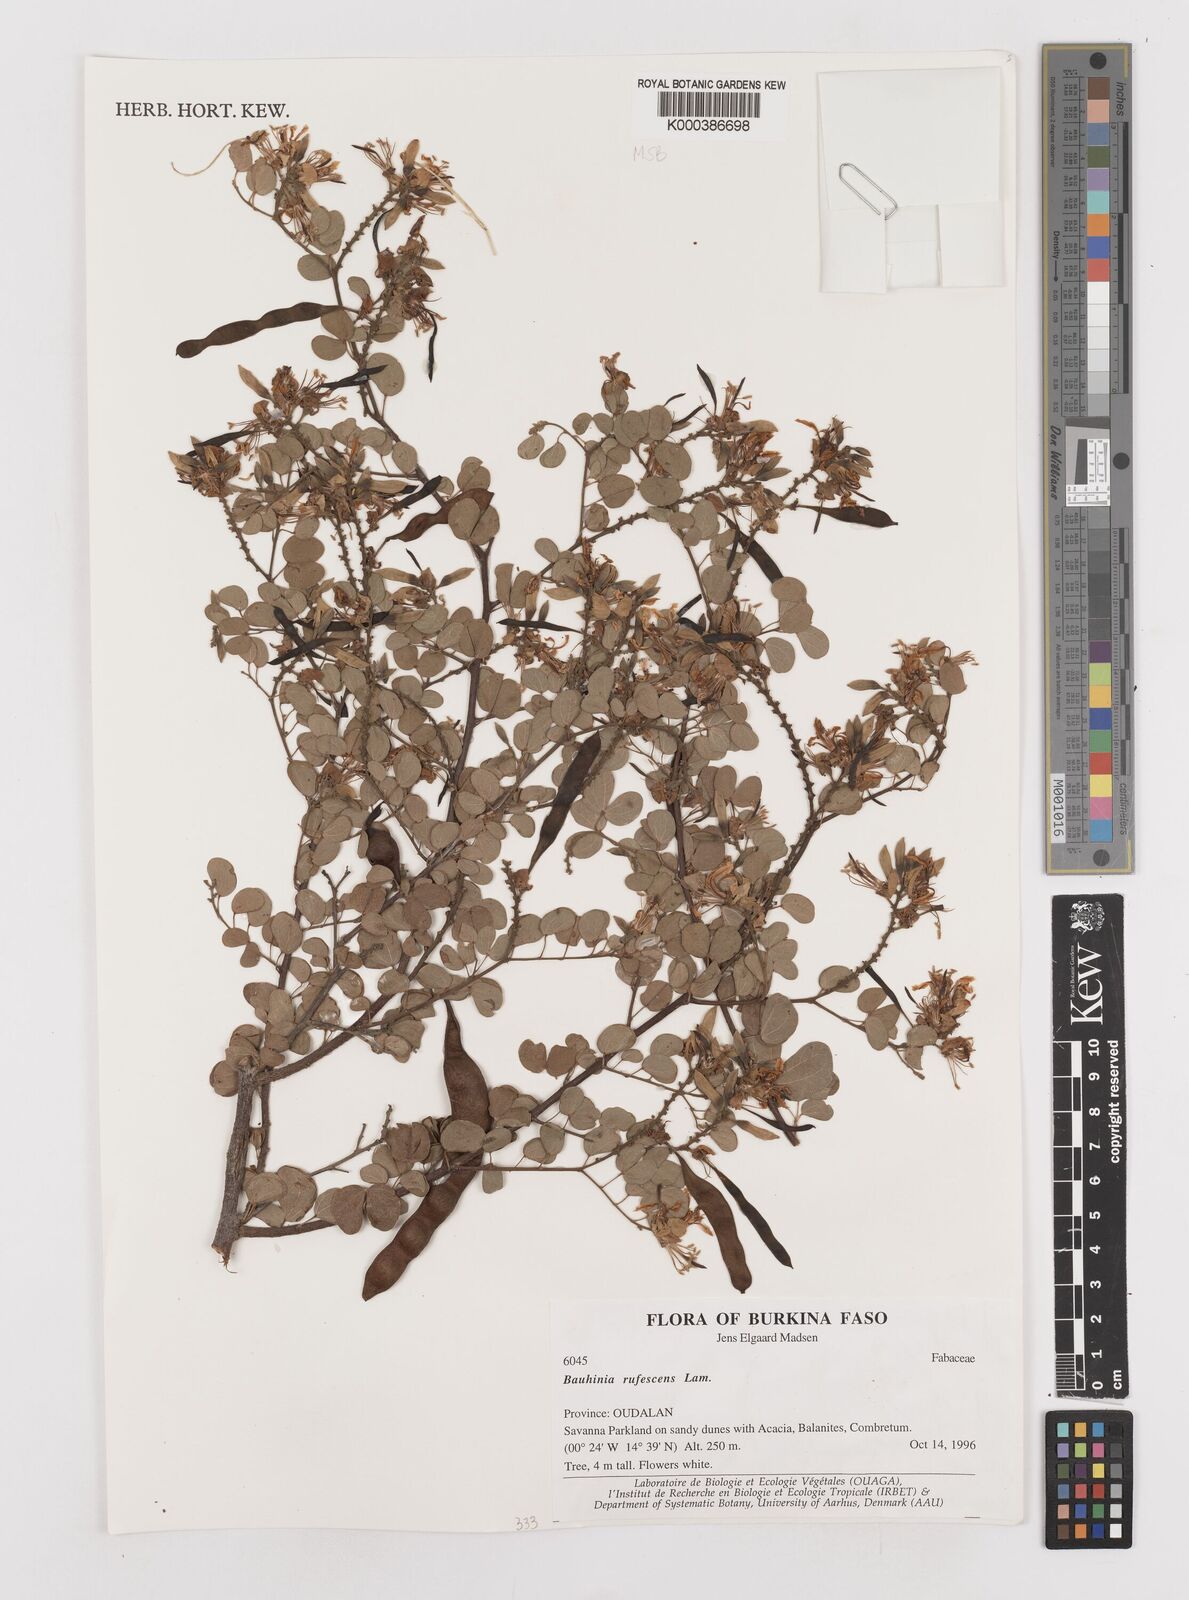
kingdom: Plantae
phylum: Tracheophyta
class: Magnoliopsida
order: Fabales
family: Fabaceae
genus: Bauhinia
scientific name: Bauhinia rufescens
